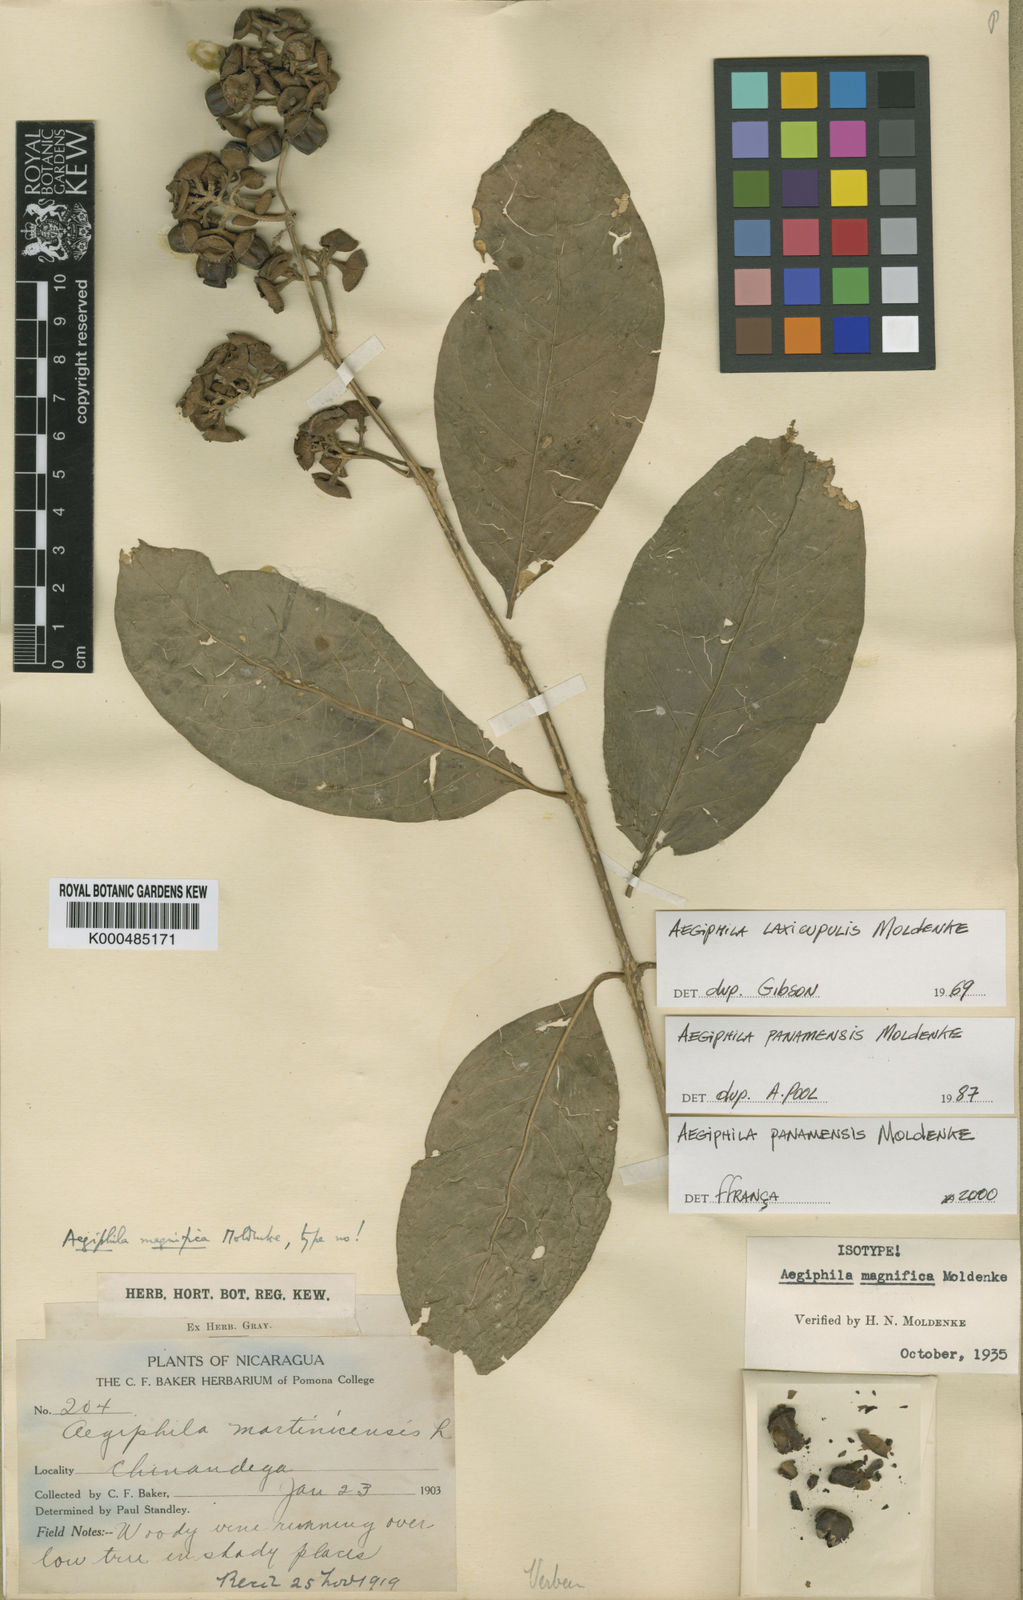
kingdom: Plantae
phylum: Tracheophyta
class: Magnoliopsida
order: Lamiales
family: Lamiaceae
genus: Aegiphila
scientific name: Aegiphila panamensis
